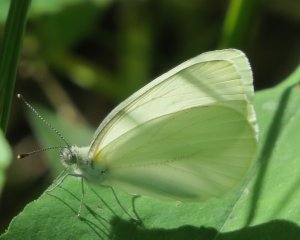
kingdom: Animalia
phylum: Arthropoda
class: Insecta
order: Lepidoptera
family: Pieridae
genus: Pieris
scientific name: Pieris oleracea
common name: Mustard White
